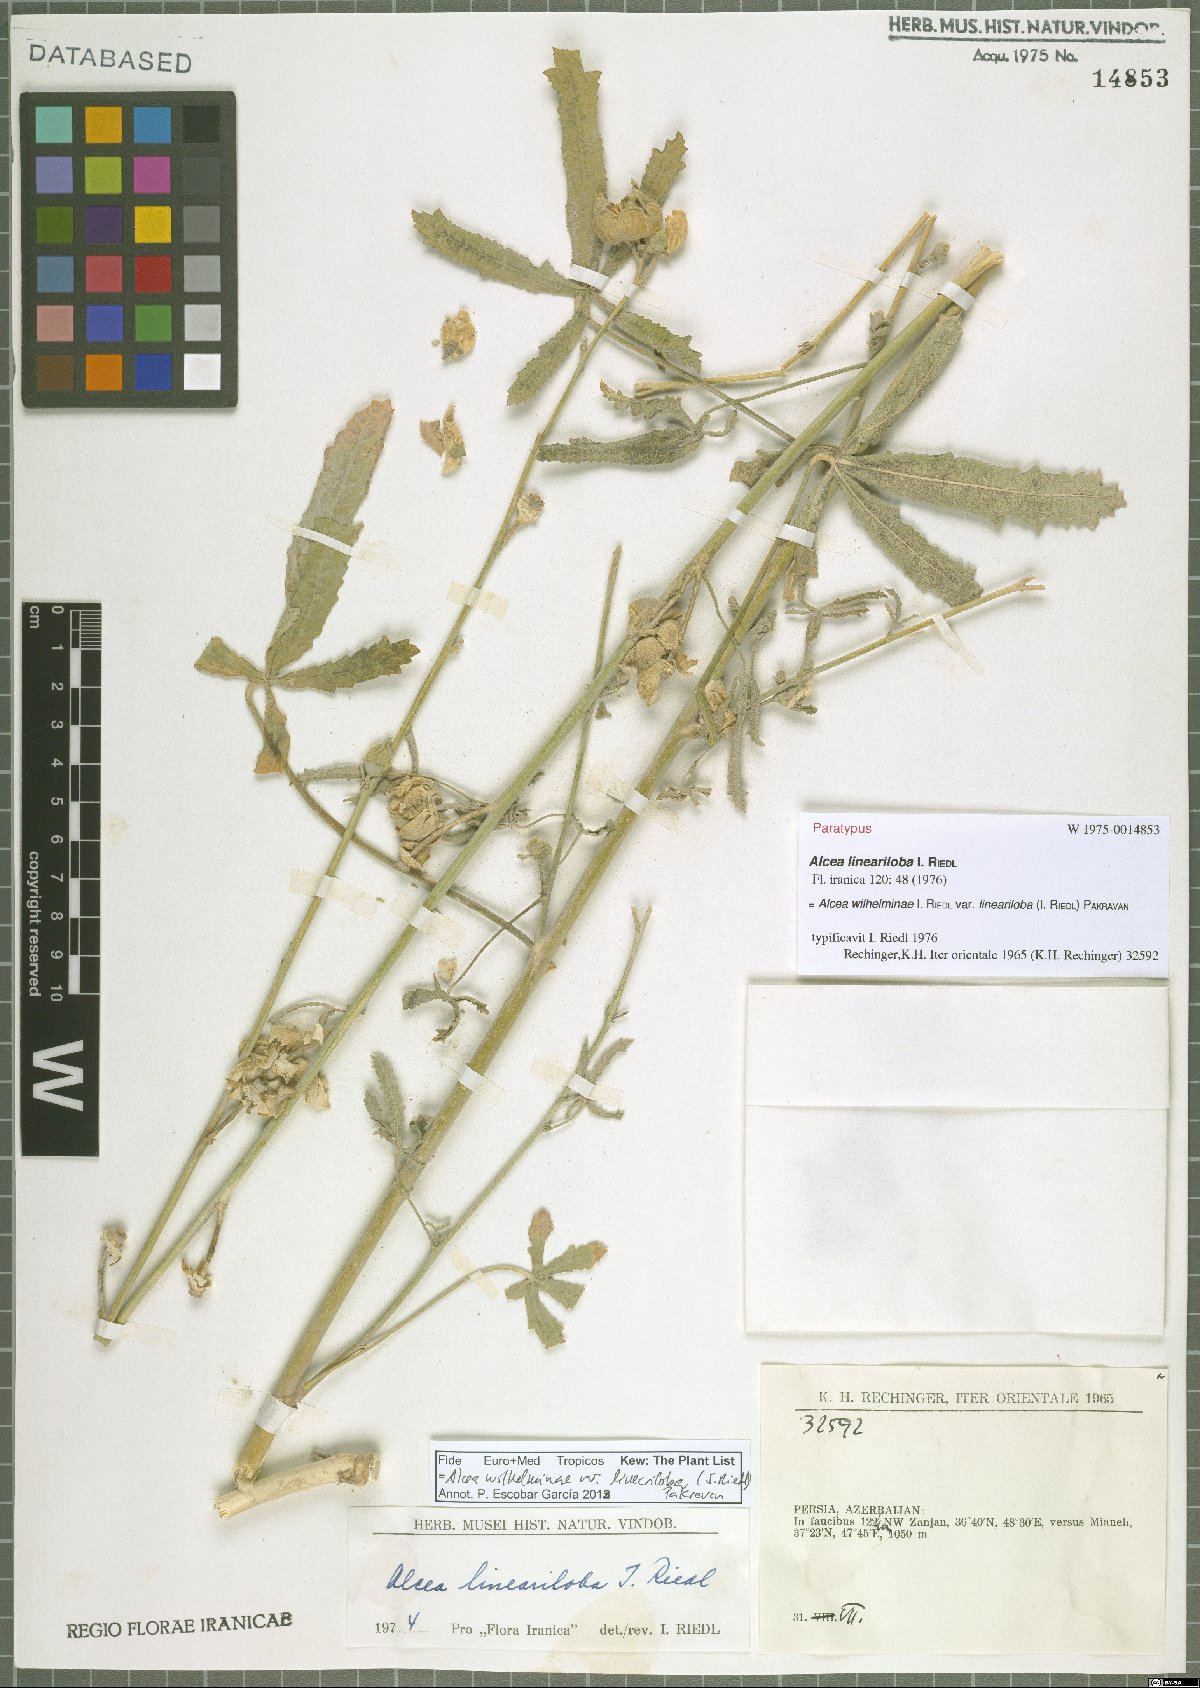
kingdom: Plantae
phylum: Tracheophyta
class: Magnoliopsida
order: Malvales
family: Malvaceae
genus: Alcea
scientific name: Alcea wilhelminae
